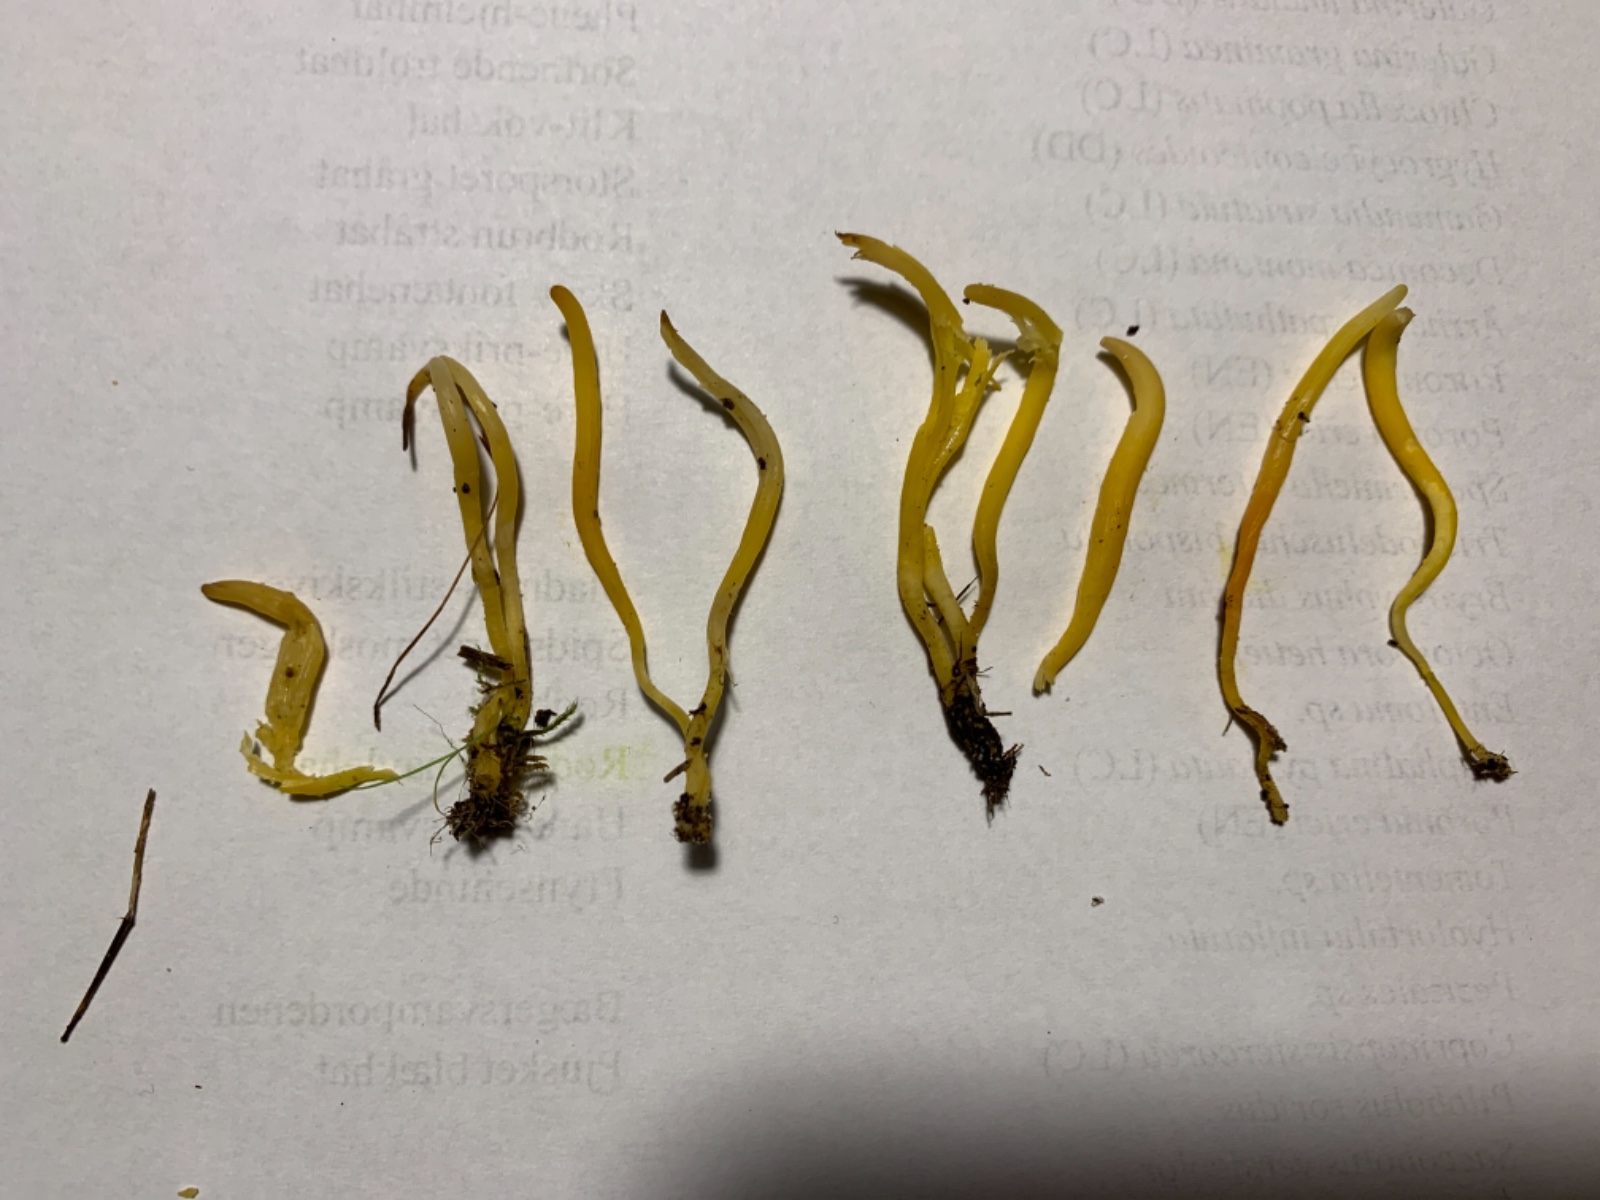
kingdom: Fungi
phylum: Basidiomycota
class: Agaricomycetes
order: Agaricales
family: Clavariaceae
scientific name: Clavariaceae
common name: køllesvampfamilien
